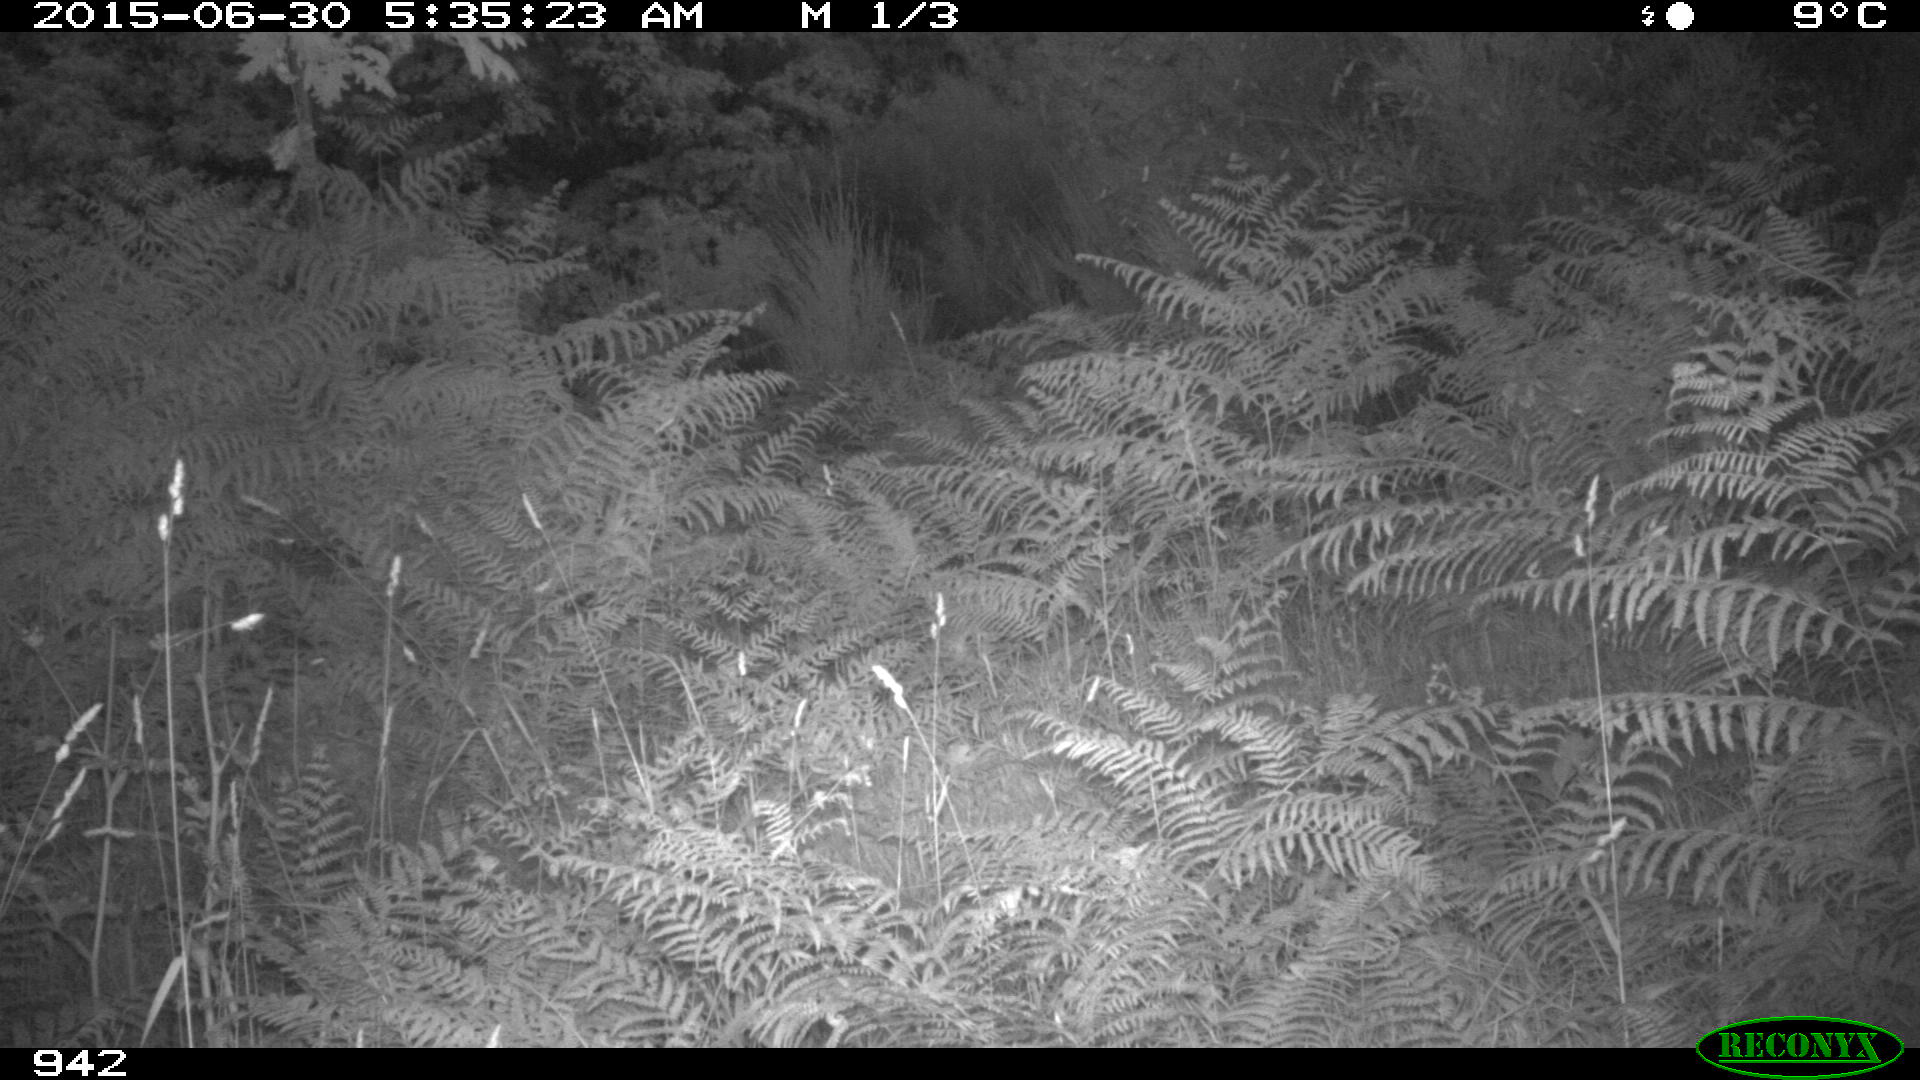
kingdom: Animalia
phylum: Chordata
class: Mammalia
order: Artiodactyla
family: Bovidae
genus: Bos
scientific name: Bos taurus
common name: Domesticated cattle
